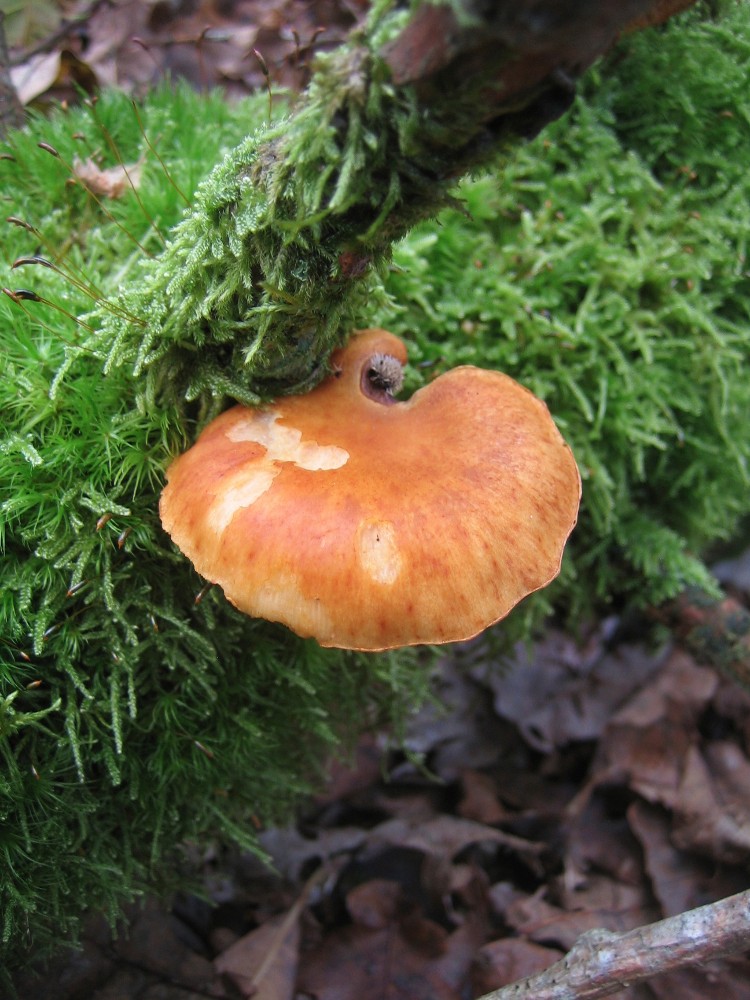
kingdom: Fungi
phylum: Basidiomycota
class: Agaricomycetes
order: Agaricales
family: Hymenogastraceae
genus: Gymnopilus
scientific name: Gymnopilus penetrans
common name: plettet flammehat
